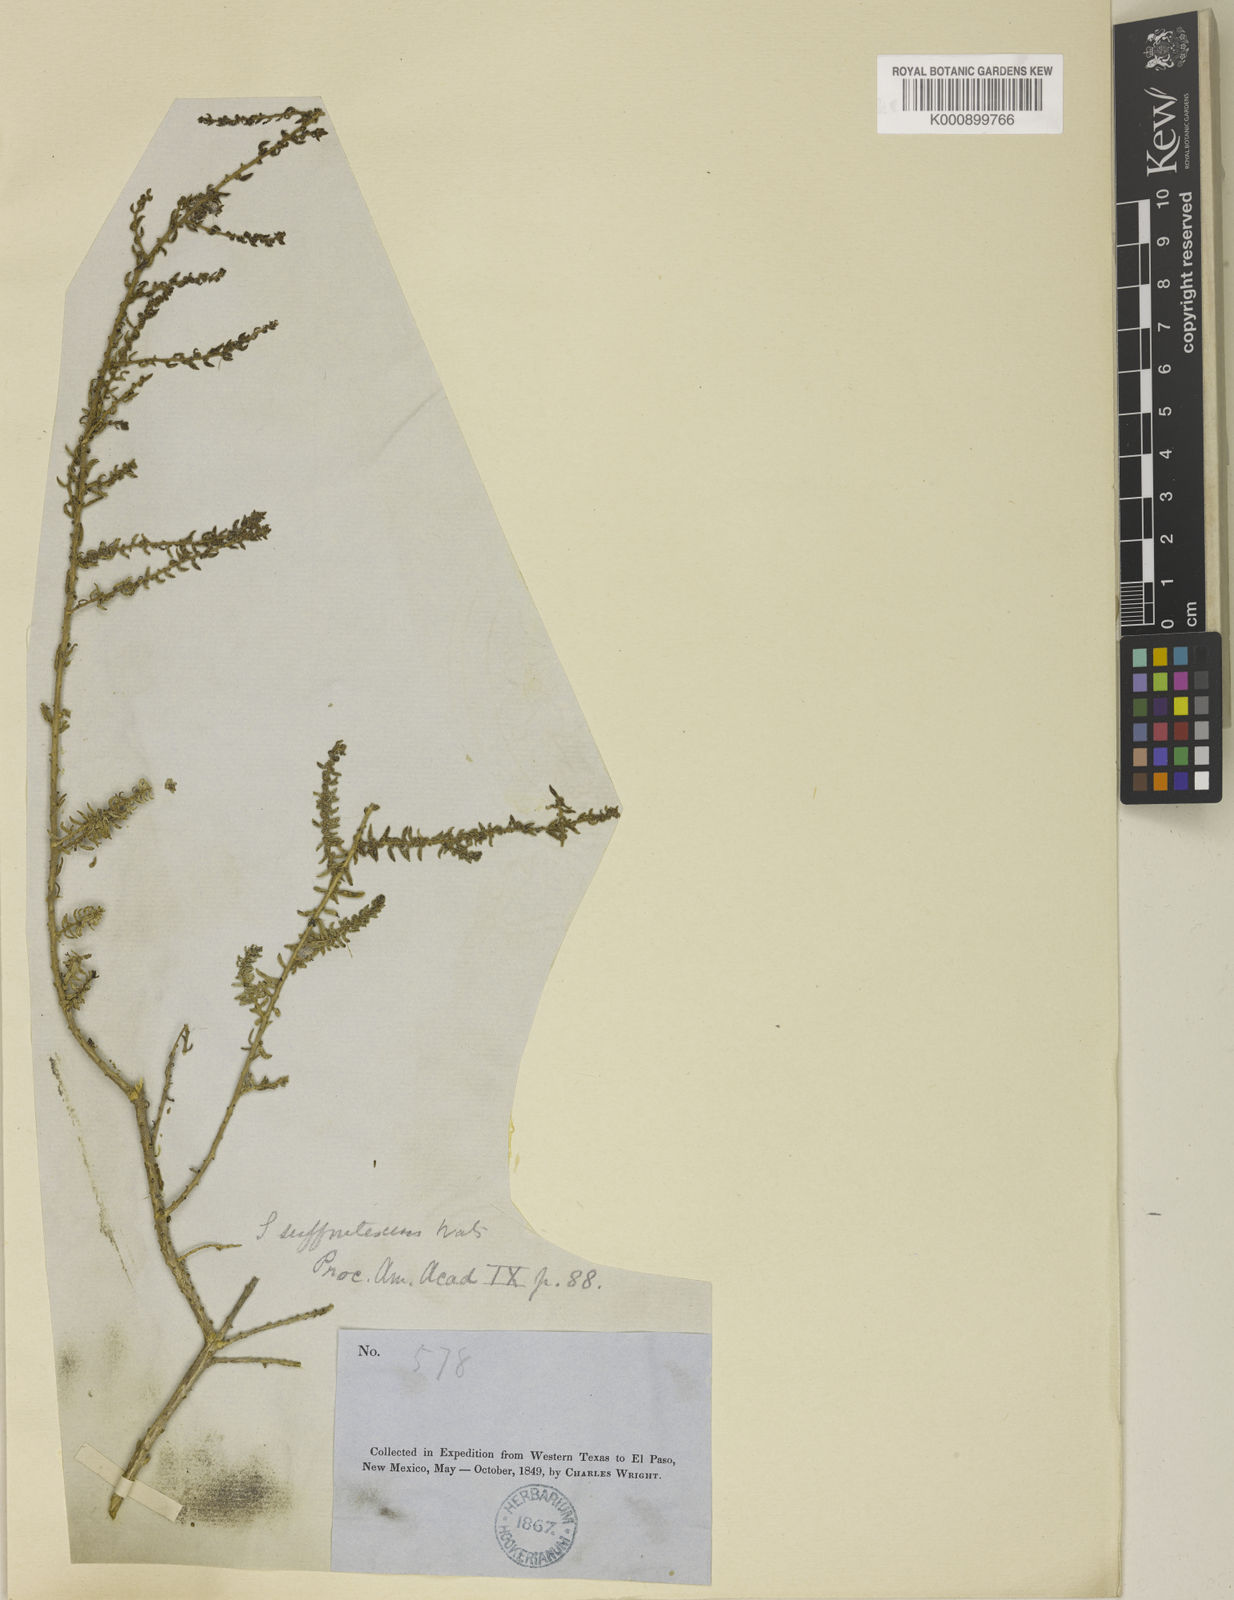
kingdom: Plantae
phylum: Tracheophyta
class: Magnoliopsida
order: Caryophyllales
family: Amaranthaceae
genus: Suaeda
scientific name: Suaeda suffrutescens
